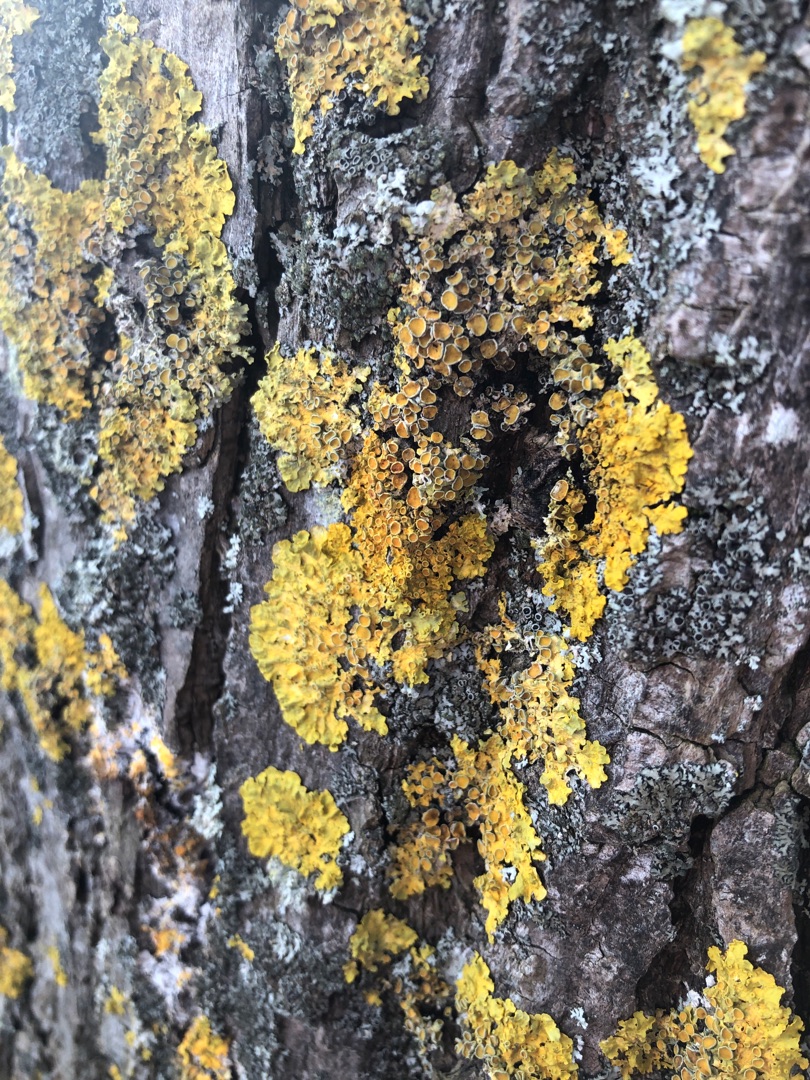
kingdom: Fungi
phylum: Ascomycota
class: Lecanoromycetes
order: Teloschistales
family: Teloschistaceae
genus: Xanthoria
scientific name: Xanthoria parietina
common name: Almindelig væggelav
